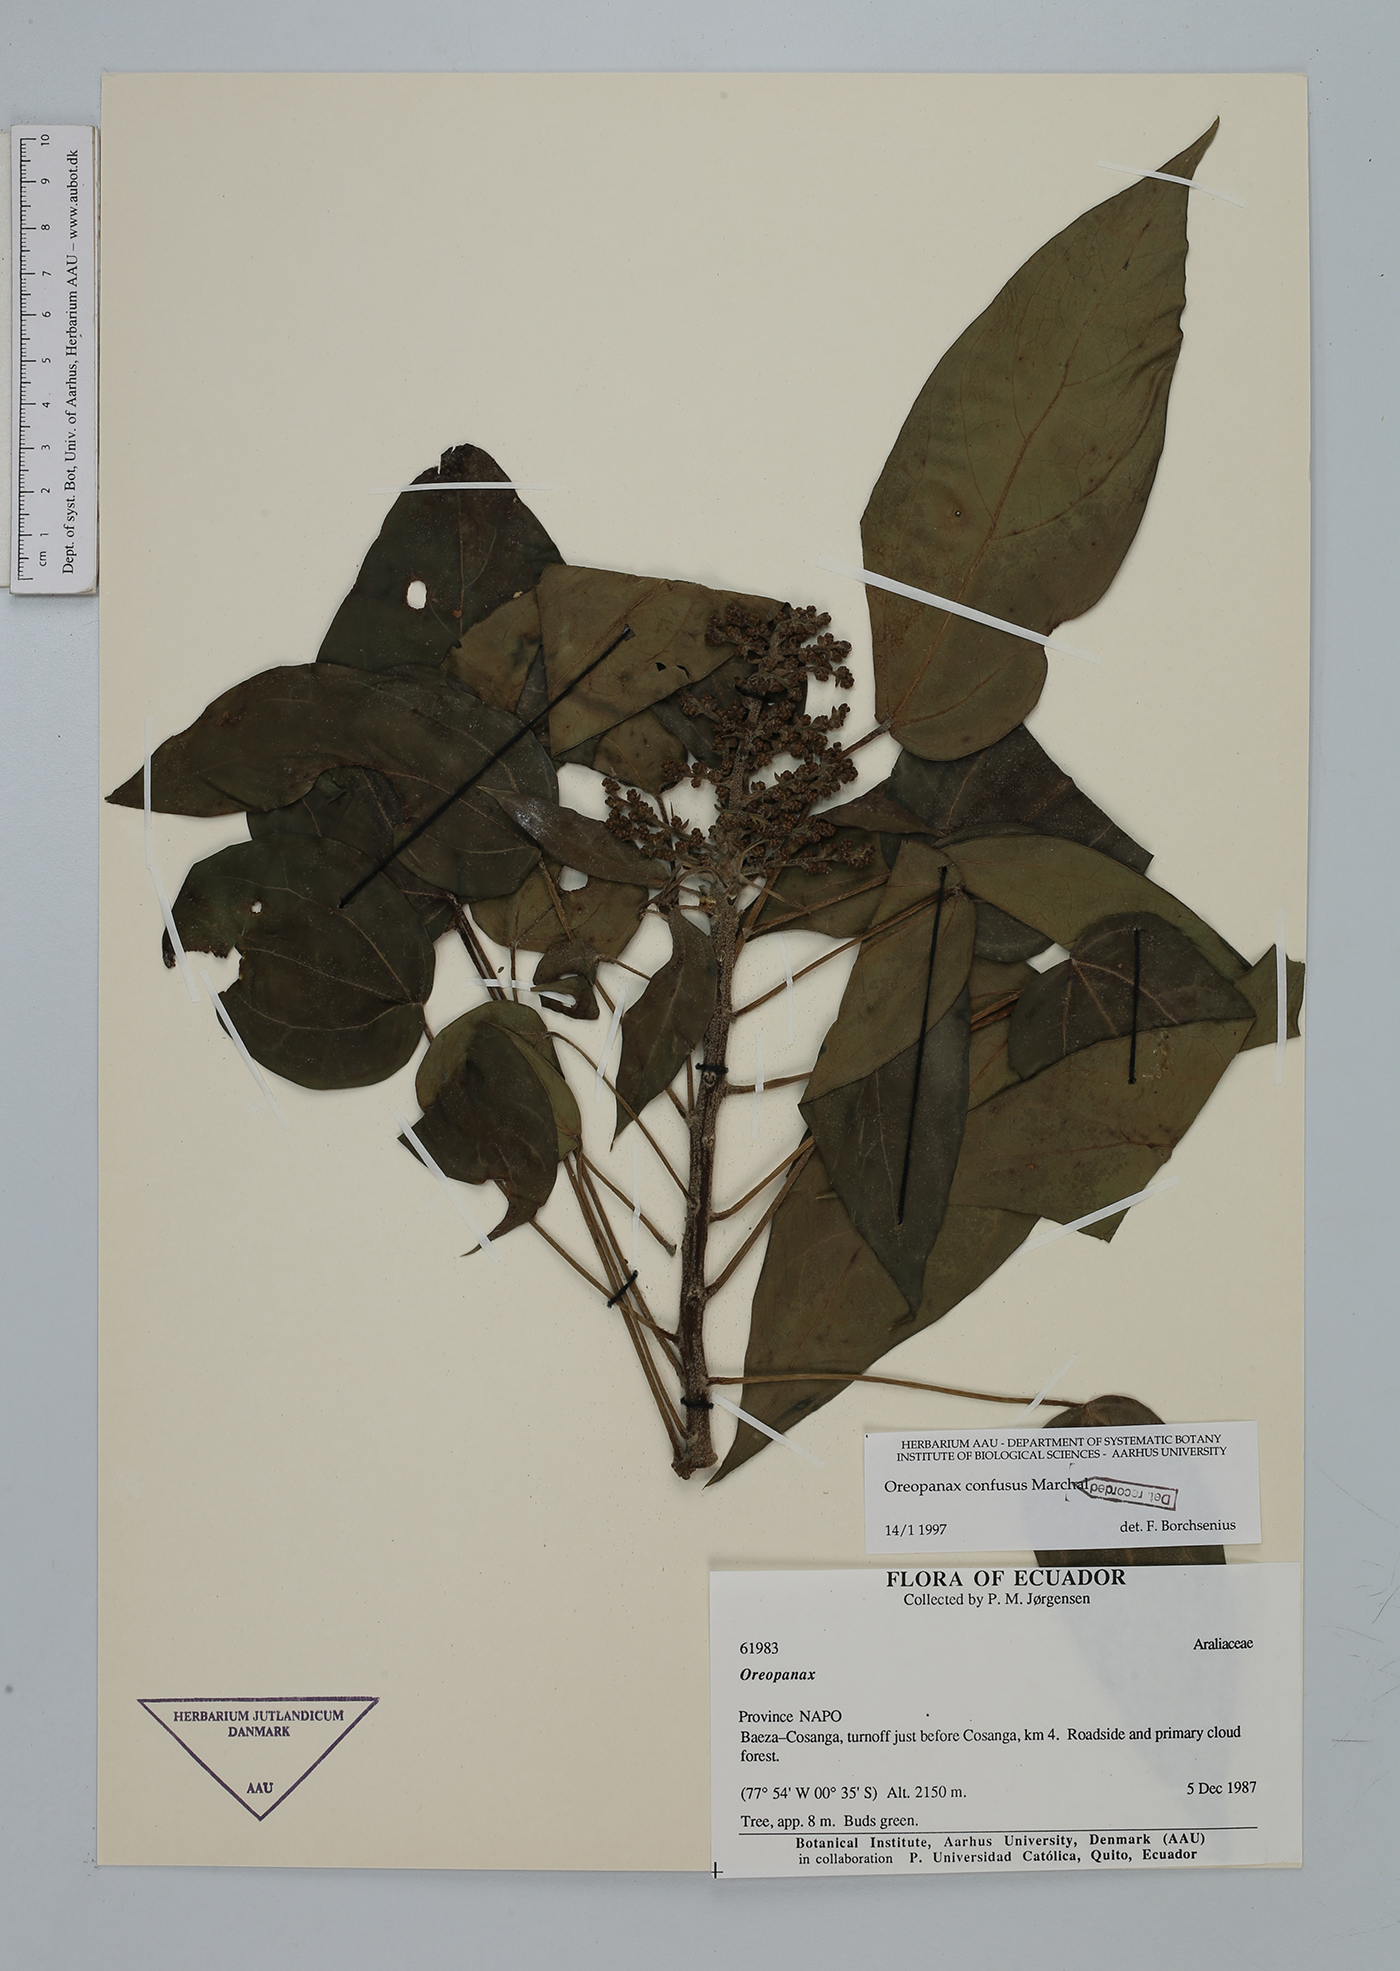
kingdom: Plantae
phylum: Tracheophyta
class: Magnoliopsida
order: Apiales
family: Araliaceae
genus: Oreopanax
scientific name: Oreopanax confusus
